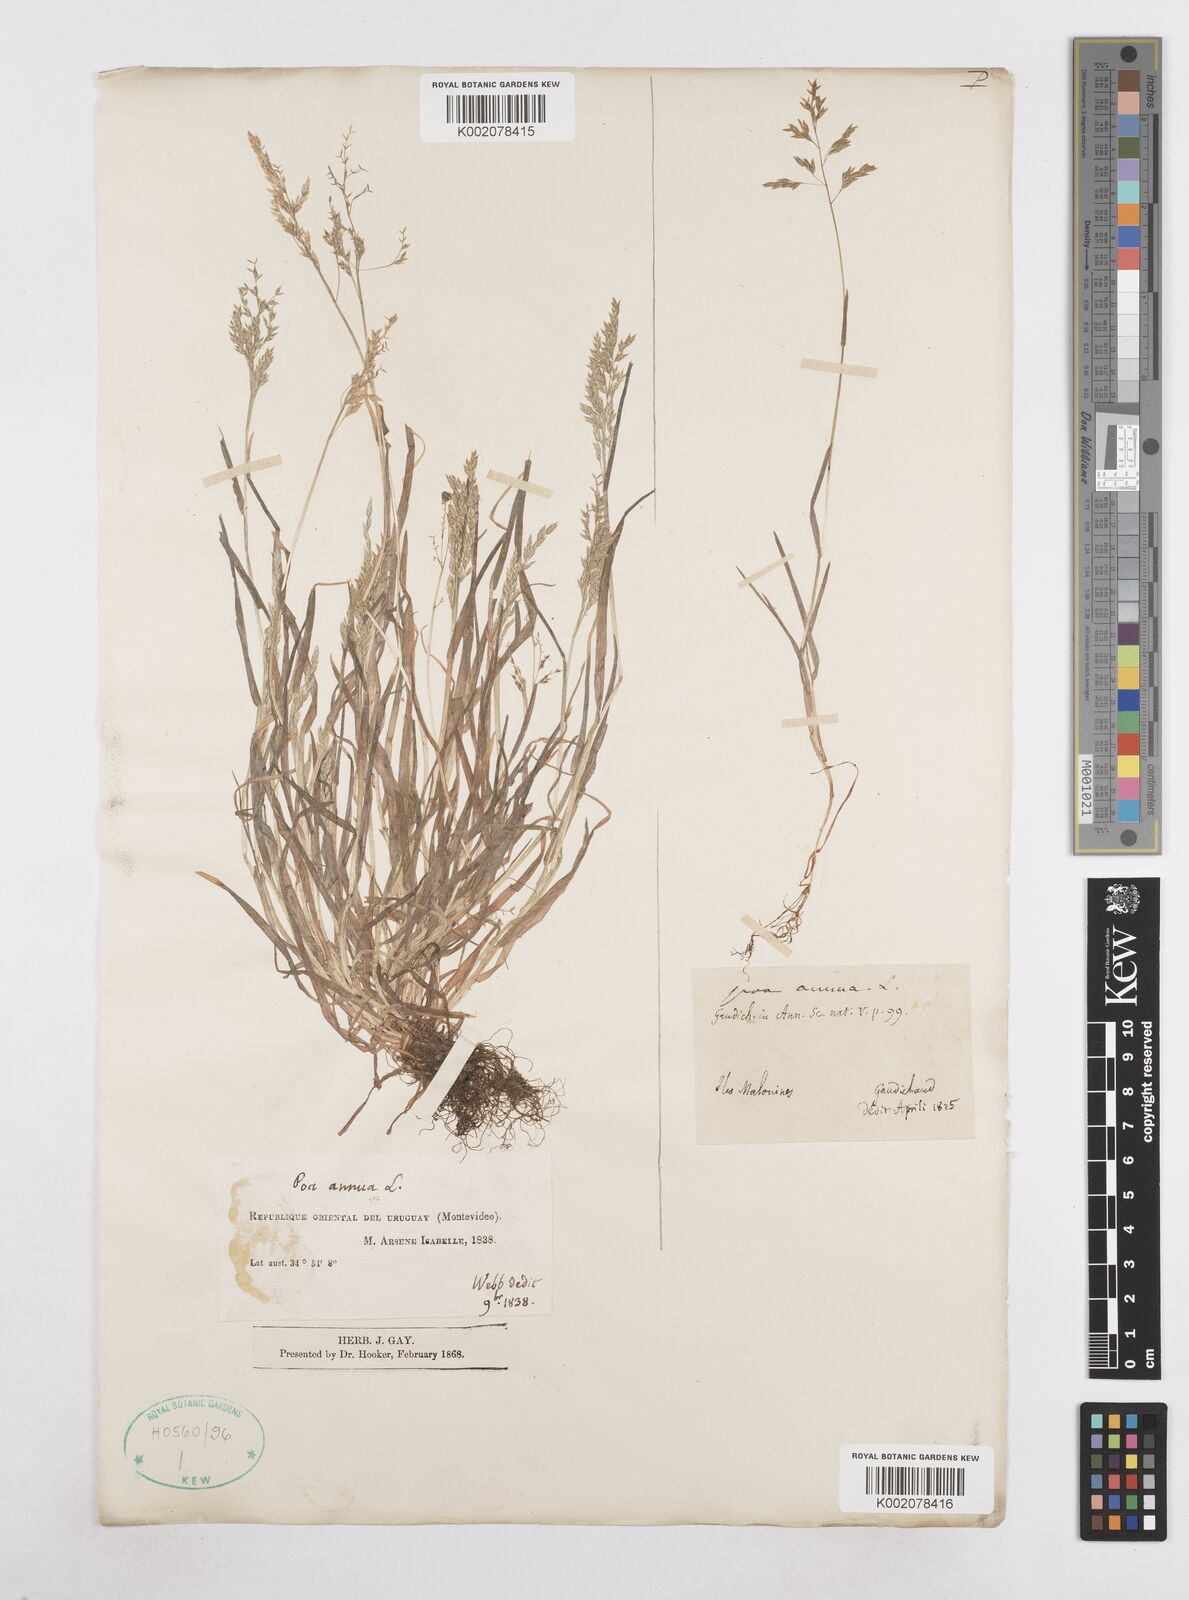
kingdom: Plantae
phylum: Tracheophyta
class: Liliopsida
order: Poales
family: Poaceae
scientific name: Poaceae
